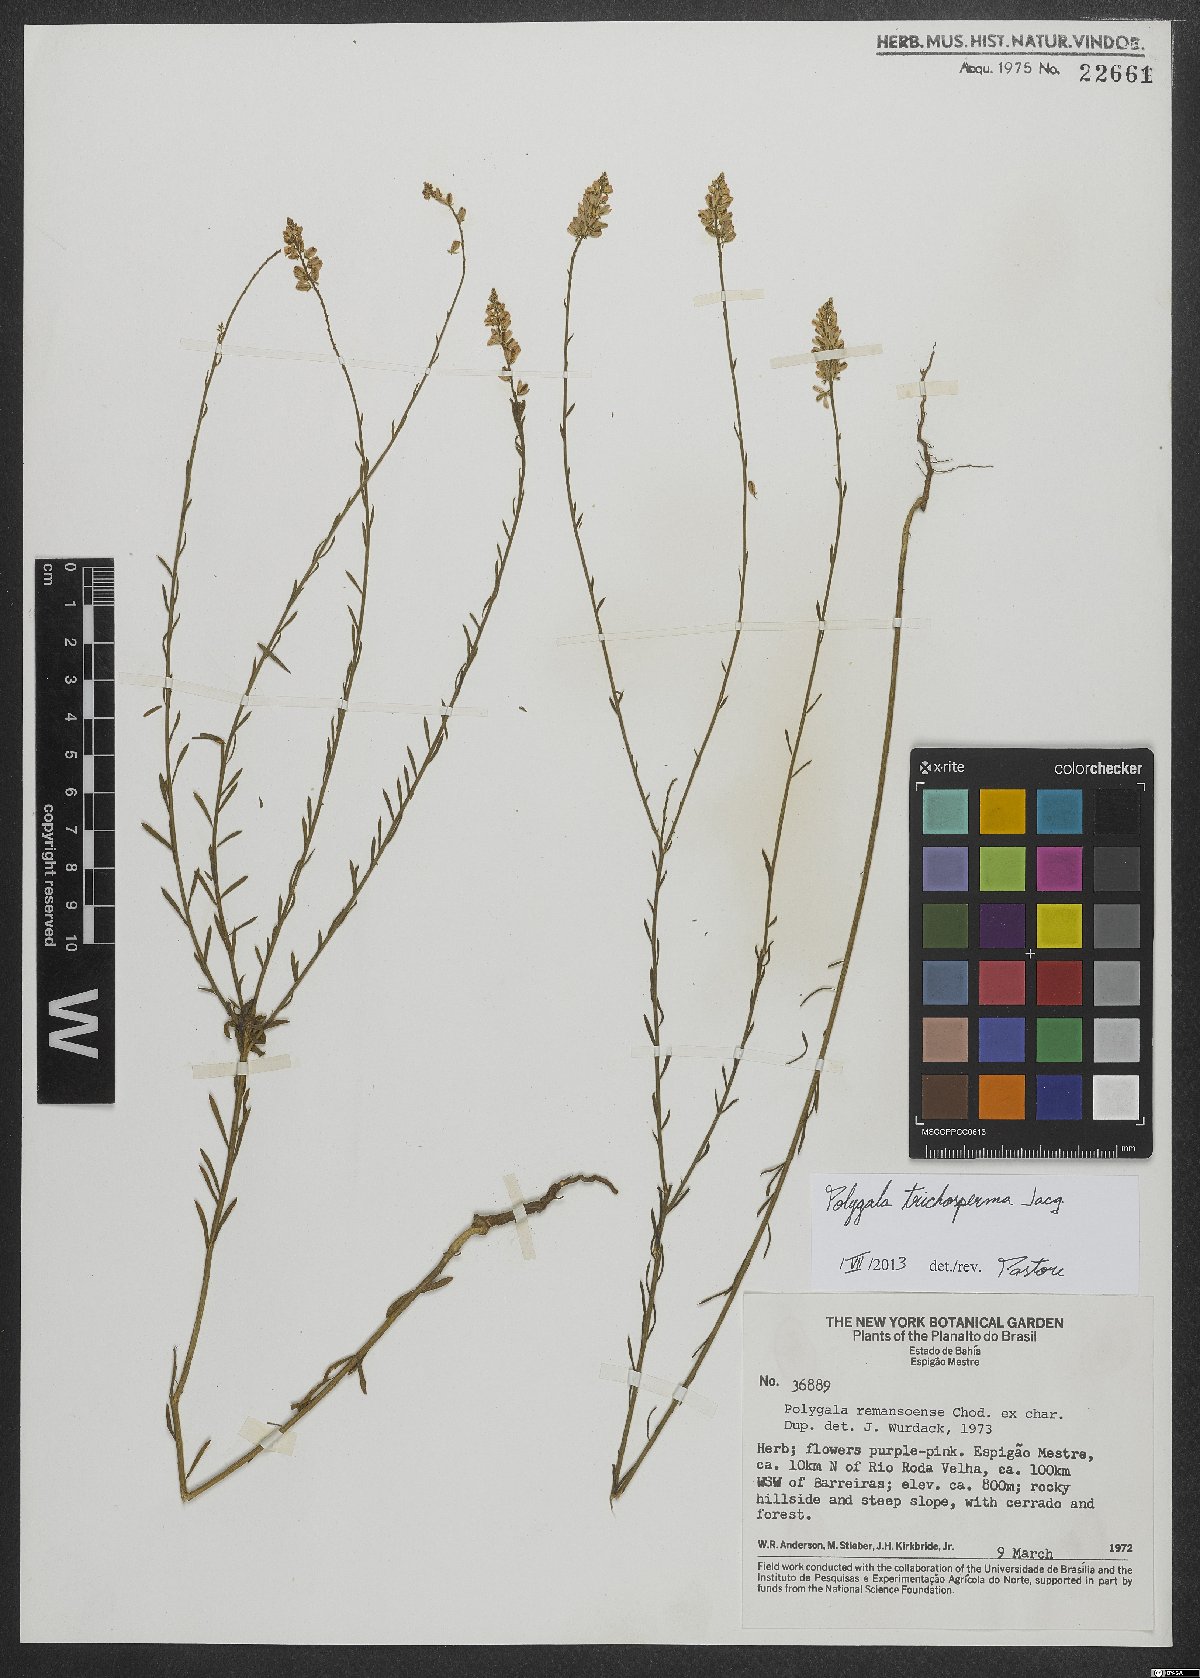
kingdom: Plantae
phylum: Tracheophyta
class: Magnoliopsida
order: Fabales
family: Polygalaceae
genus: Polygala
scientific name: Polygala trichosperma
